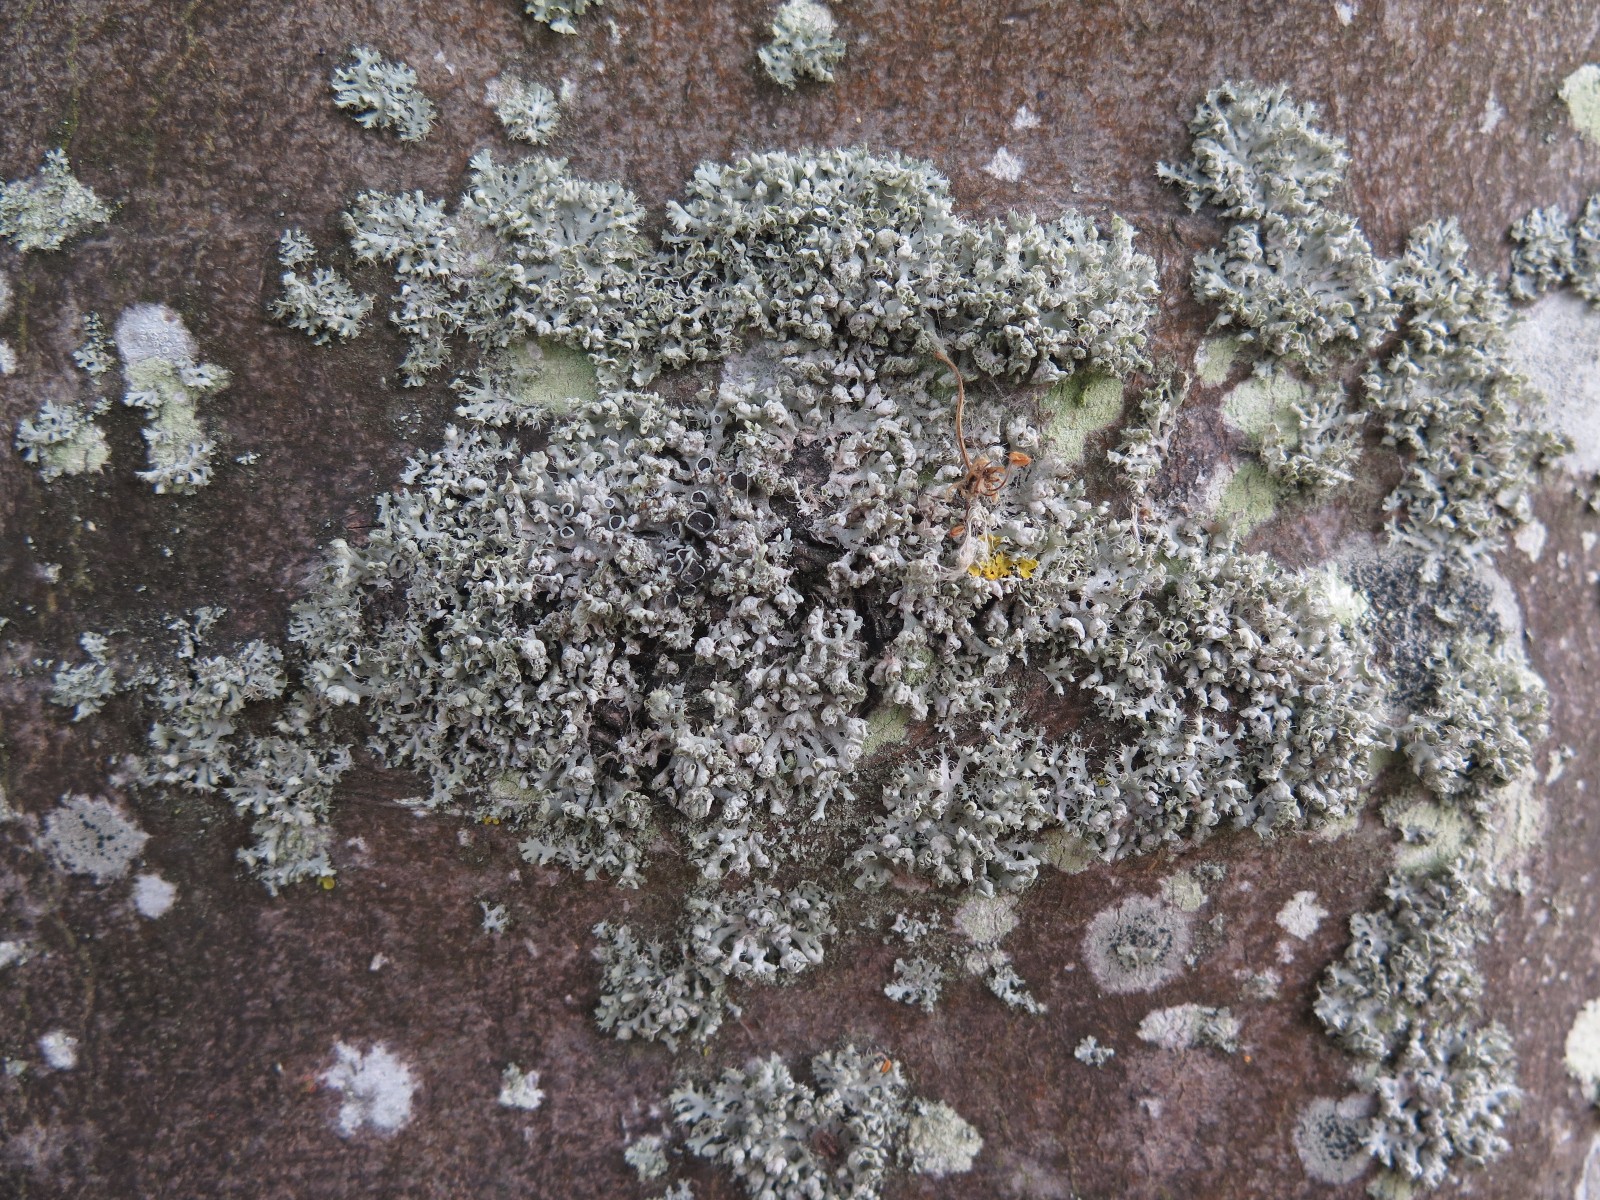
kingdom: Fungi
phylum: Ascomycota
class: Lecanoromycetes
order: Caliciales
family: Physciaceae
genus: Physcia
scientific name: Physcia adscendens
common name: hætte-rosetlav
